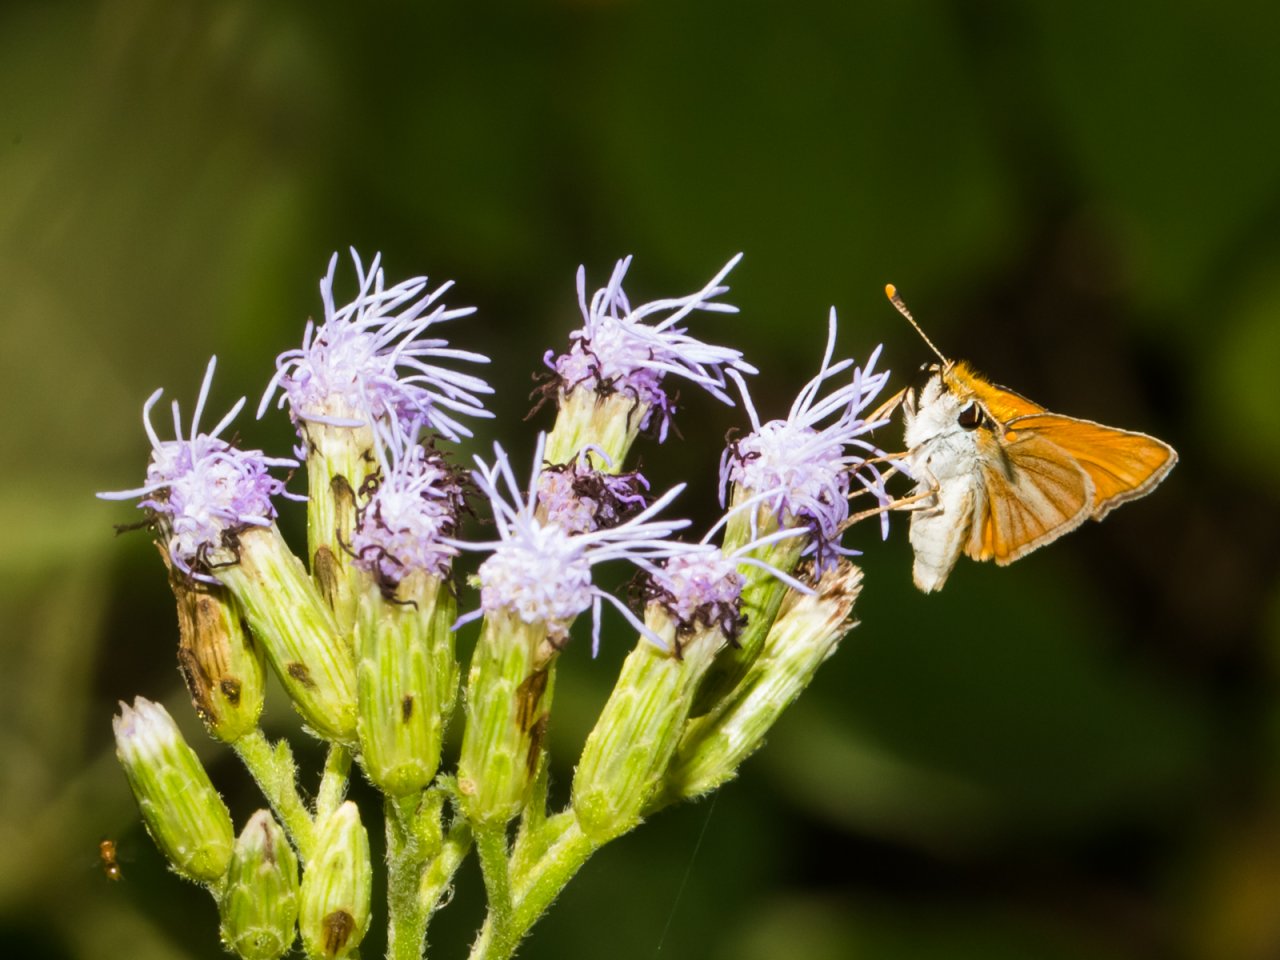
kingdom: Animalia
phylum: Arthropoda
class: Insecta
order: Lepidoptera
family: Hesperiidae
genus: Copaeodes
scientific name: Copaeodes minima
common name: Southern Skipperling
